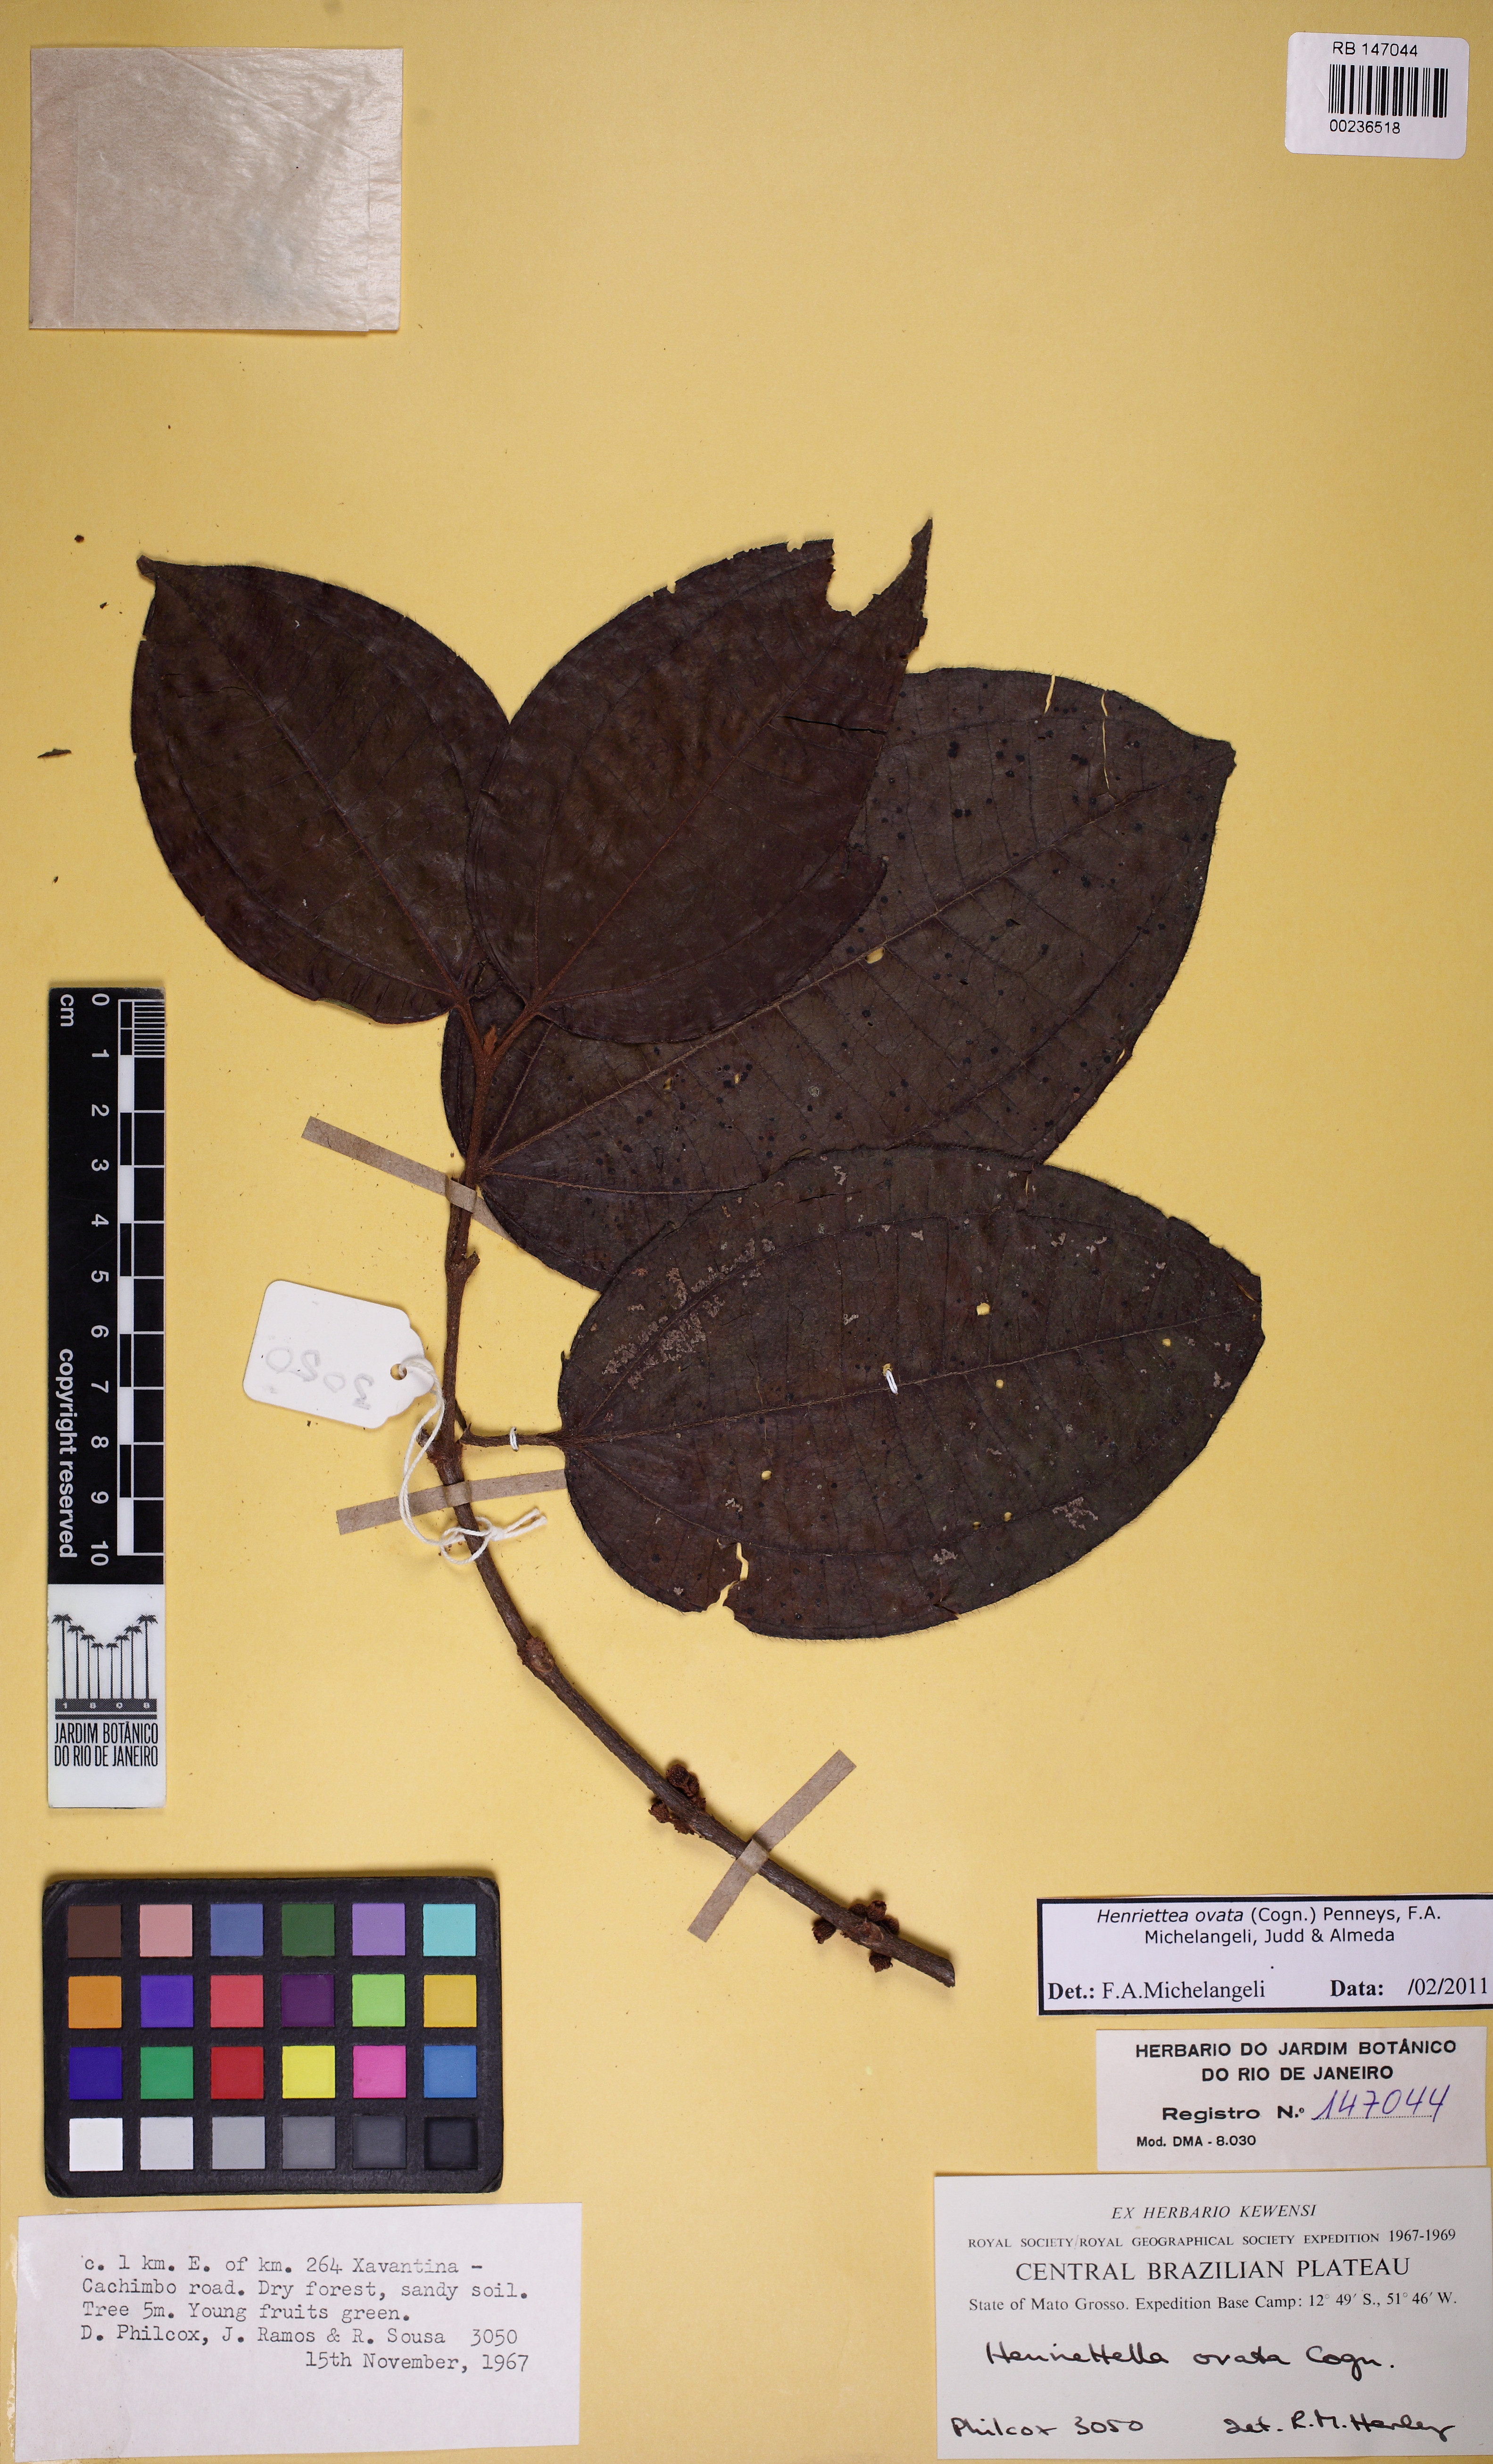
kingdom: Plantae
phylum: Tracheophyta
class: Magnoliopsida
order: Myrtales
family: Melastomataceae
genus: Henriettea
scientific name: Henriettea ovata
